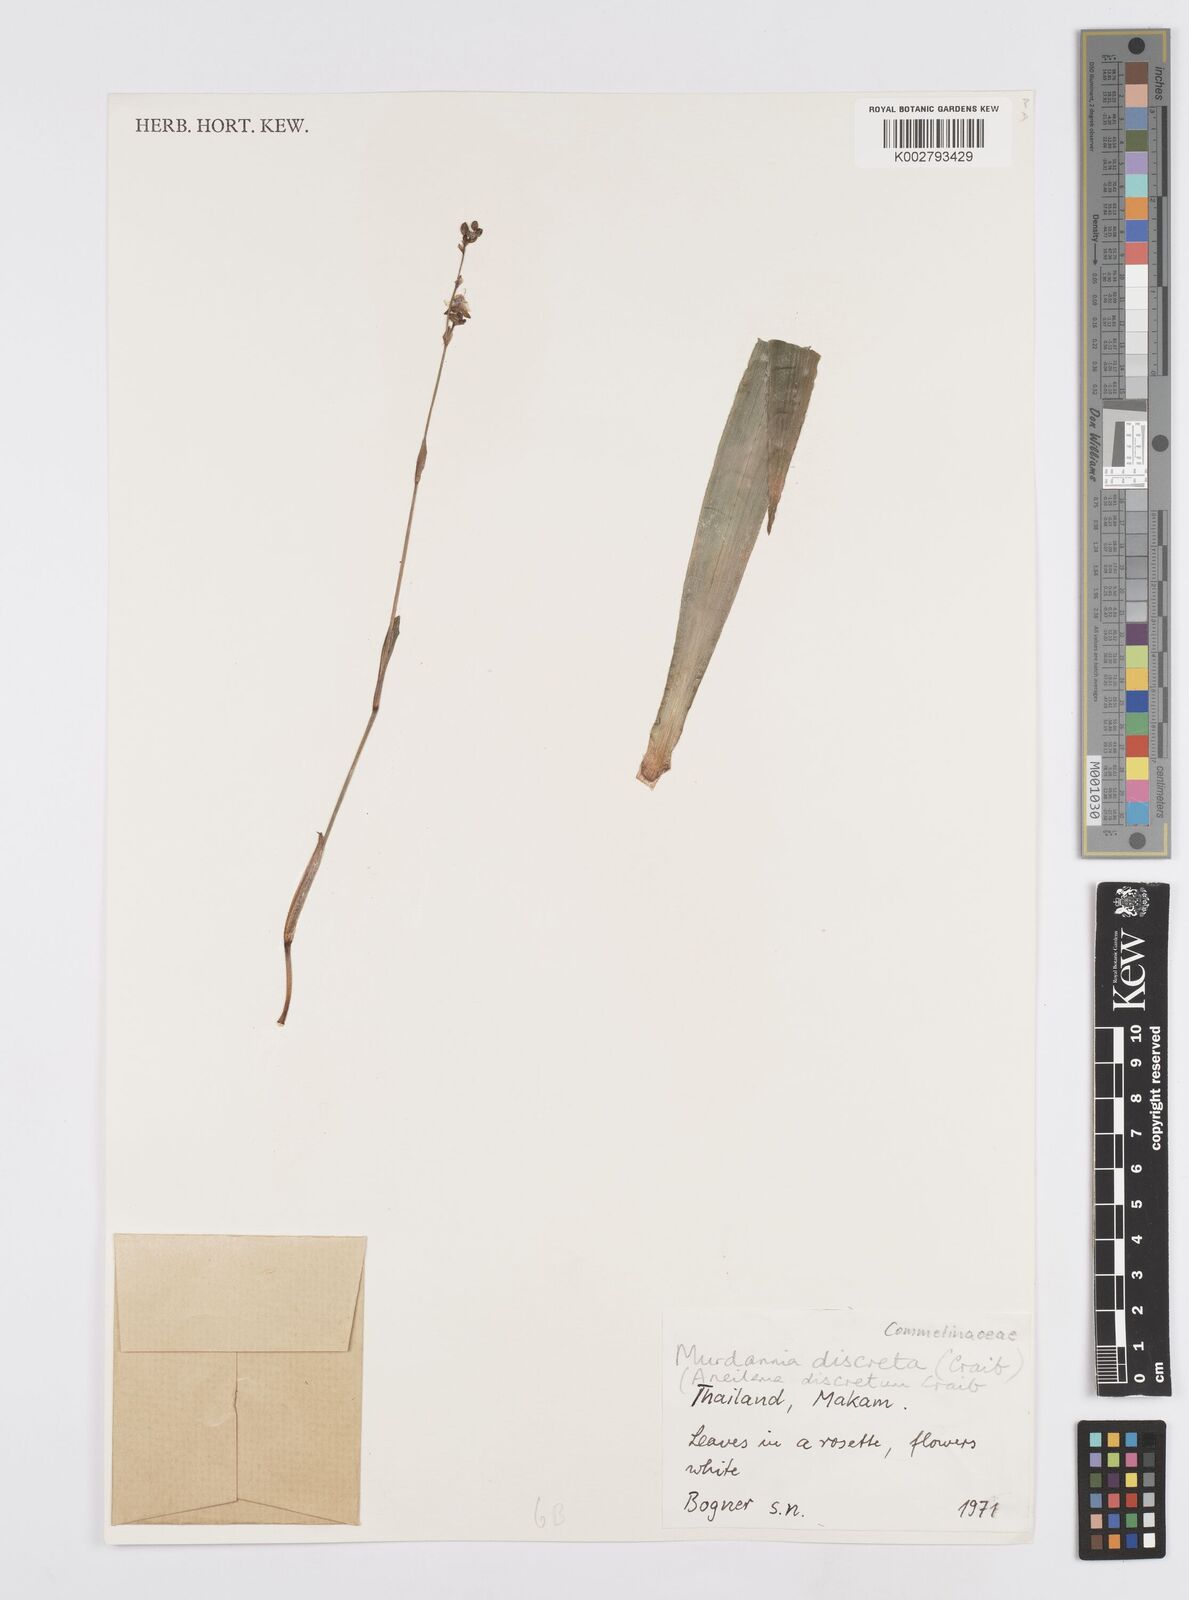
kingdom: Plantae
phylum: Tracheophyta
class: Liliopsida
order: Commelinales
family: Commelinaceae
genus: Murdannia
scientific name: Murdannia
